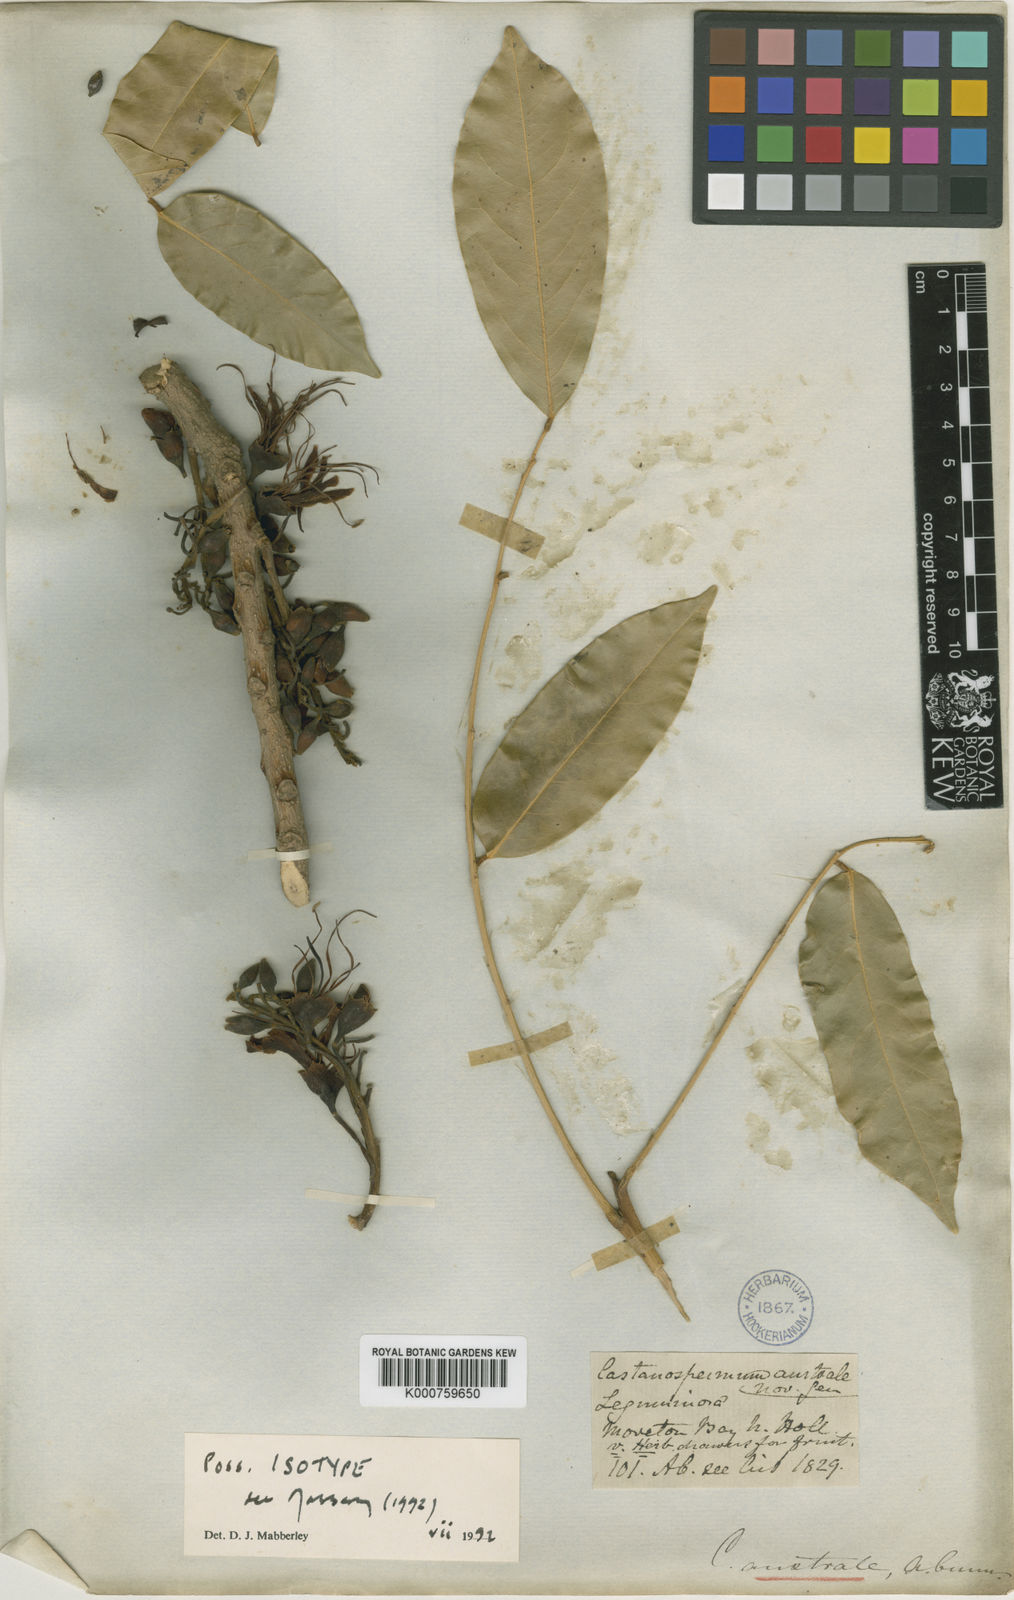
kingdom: Plantae
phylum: Tracheophyta
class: Magnoliopsida
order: Fabales
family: Fabaceae
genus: Castanospermum
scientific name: Castanospermum
